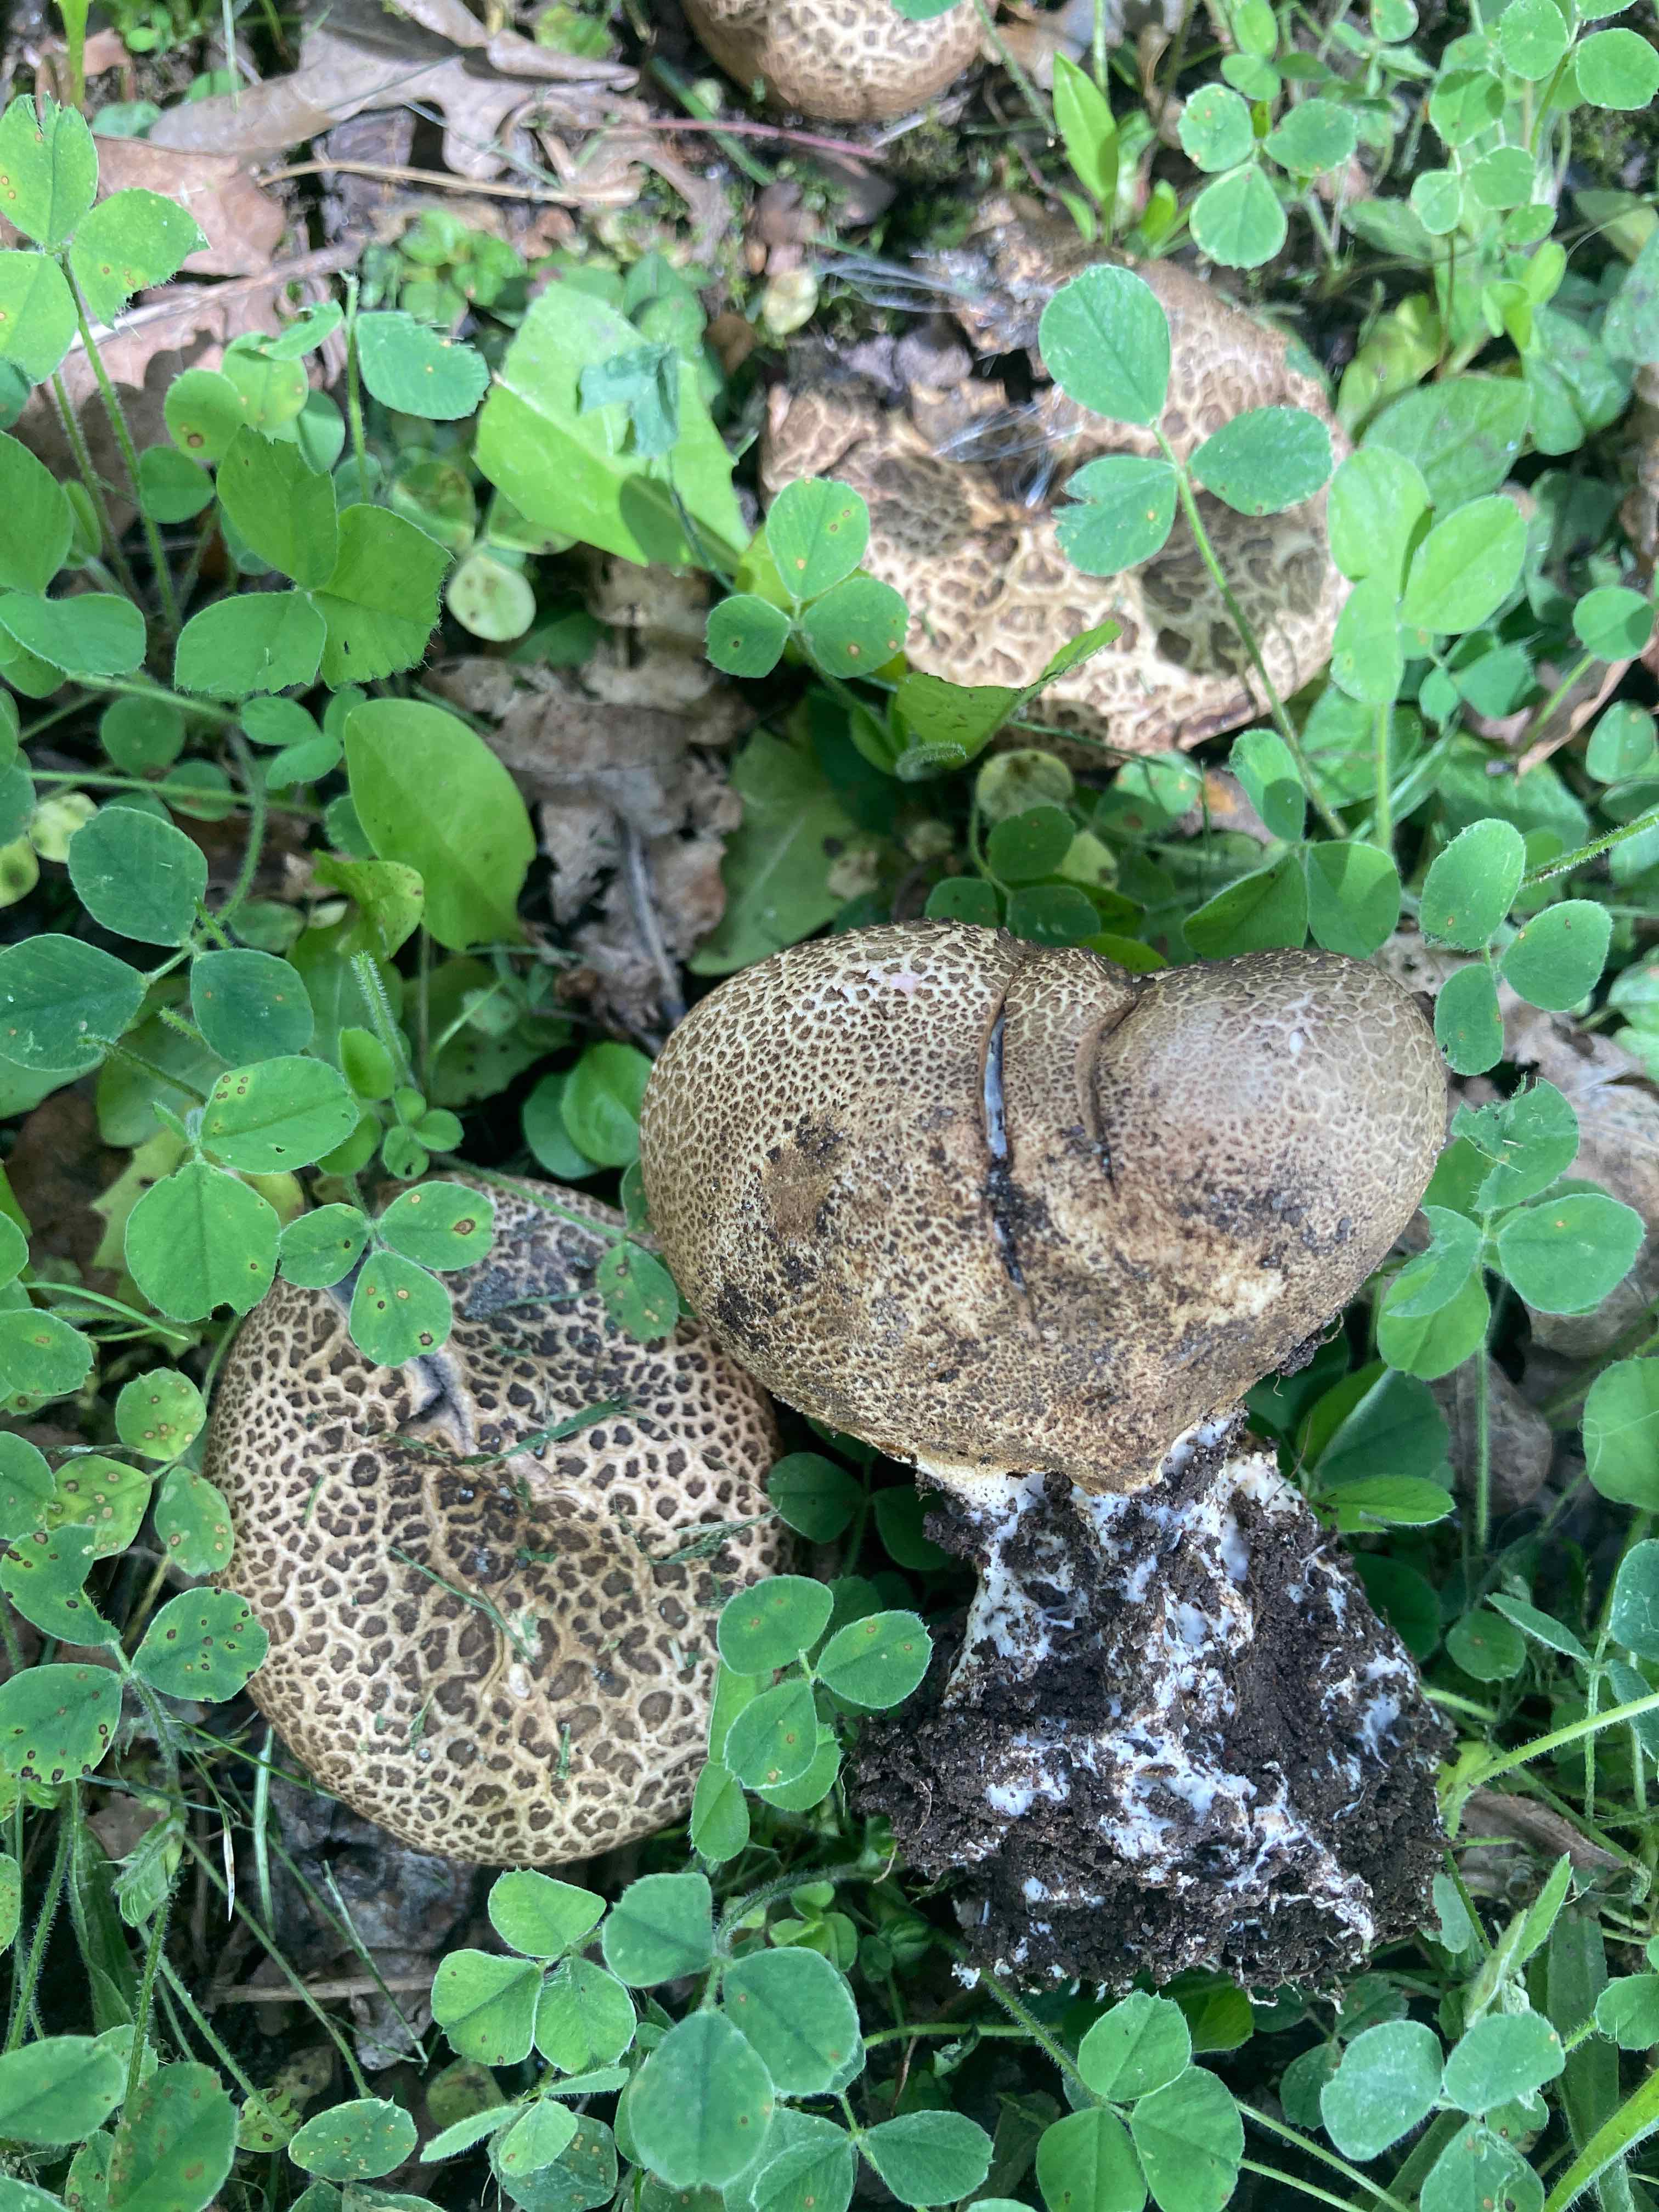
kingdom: Fungi
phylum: Basidiomycota
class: Agaricomycetes
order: Boletales
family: Sclerodermataceae
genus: Scleroderma
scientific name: Scleroderma verrucosum
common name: stilket bruskbold
